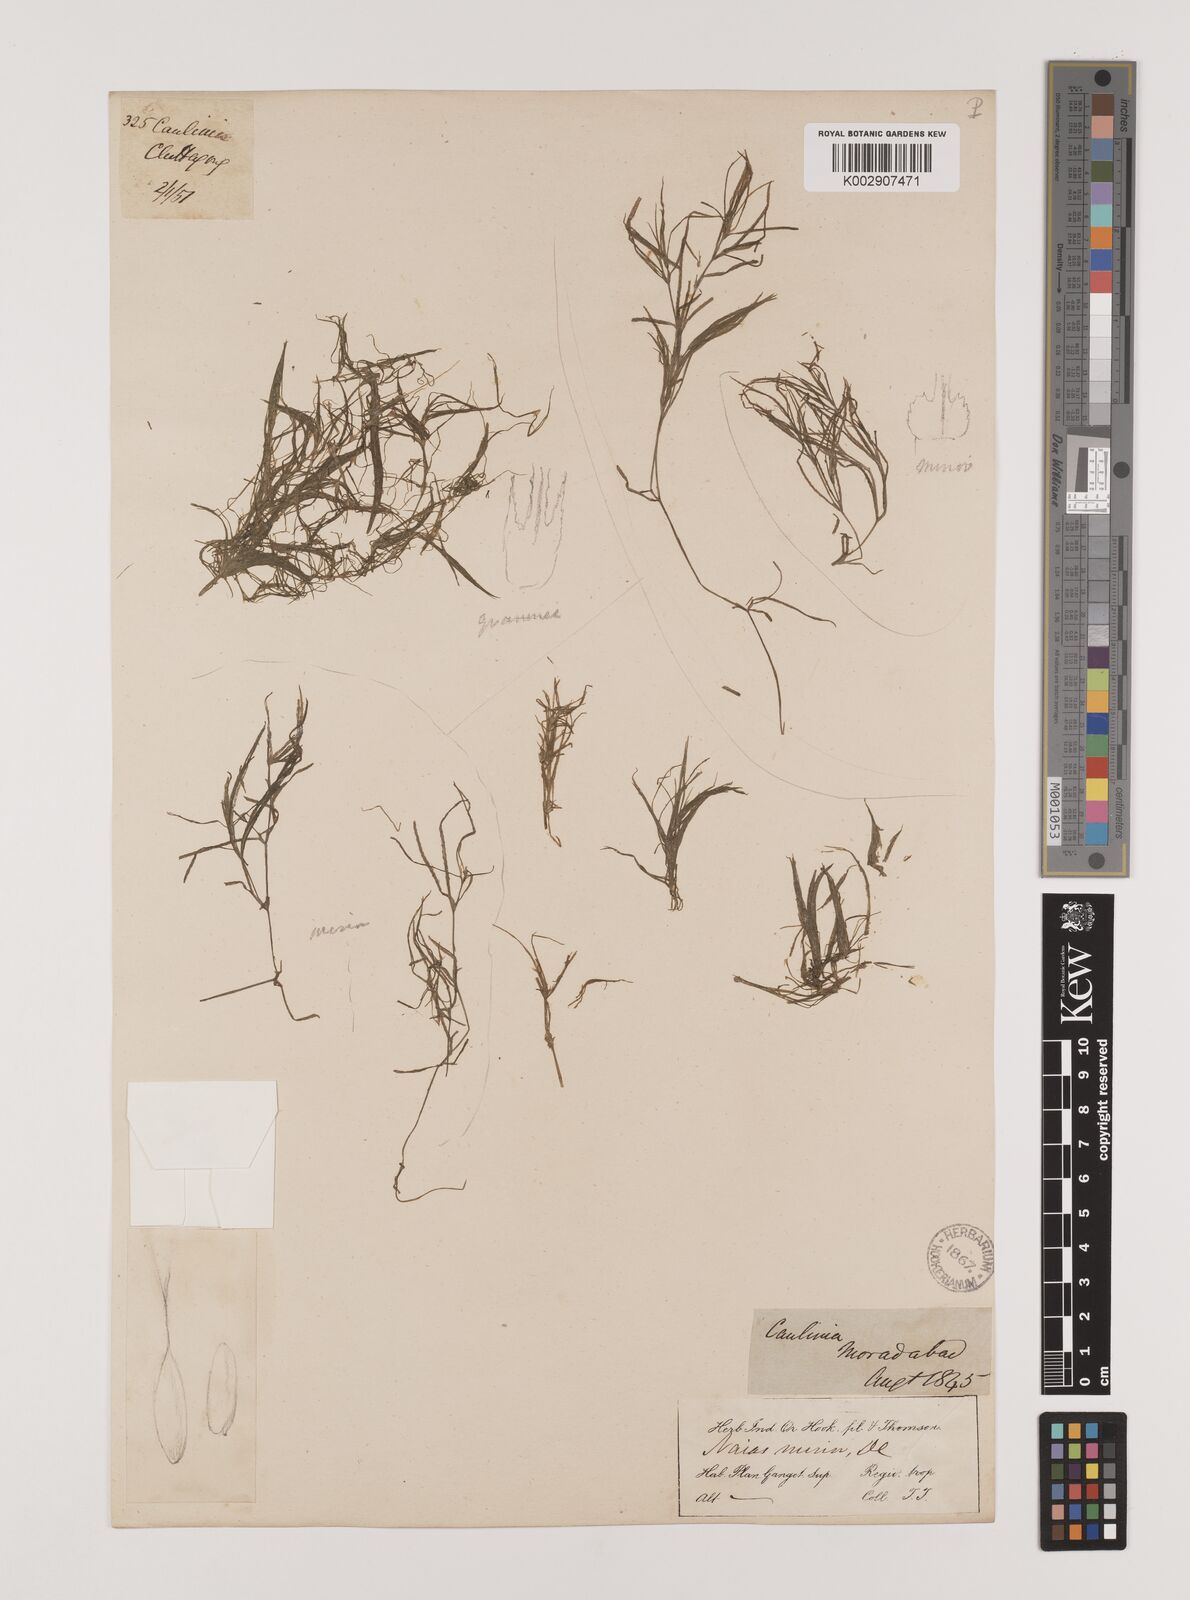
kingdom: Plantae
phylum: Tracheophyta
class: Liliopsida
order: Alismatales
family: Hydrocharitaceae
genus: Najas
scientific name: Najas graminea
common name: Ricefield waternymph
